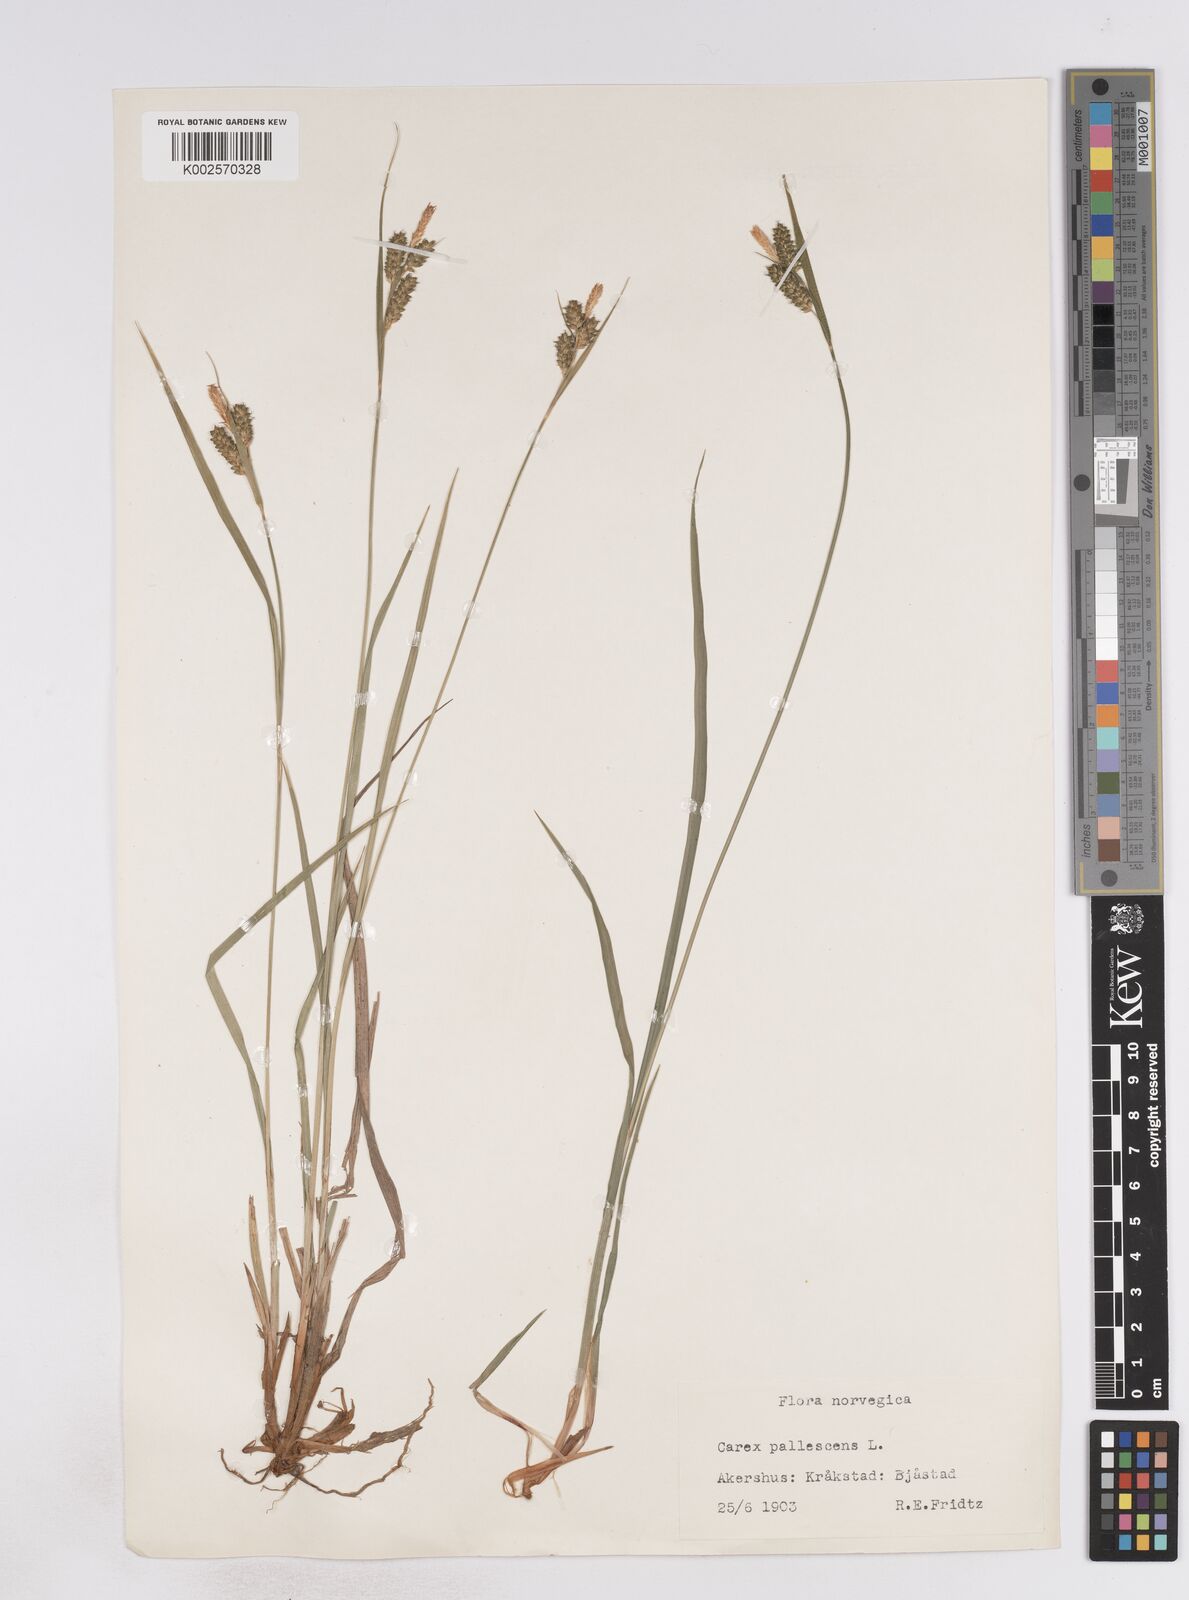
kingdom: Plantae
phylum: Tracheophyta
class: Liliopsida
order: Poales
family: Cyperaceae
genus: Carex
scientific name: Carex pallescens
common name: Pale sedge
